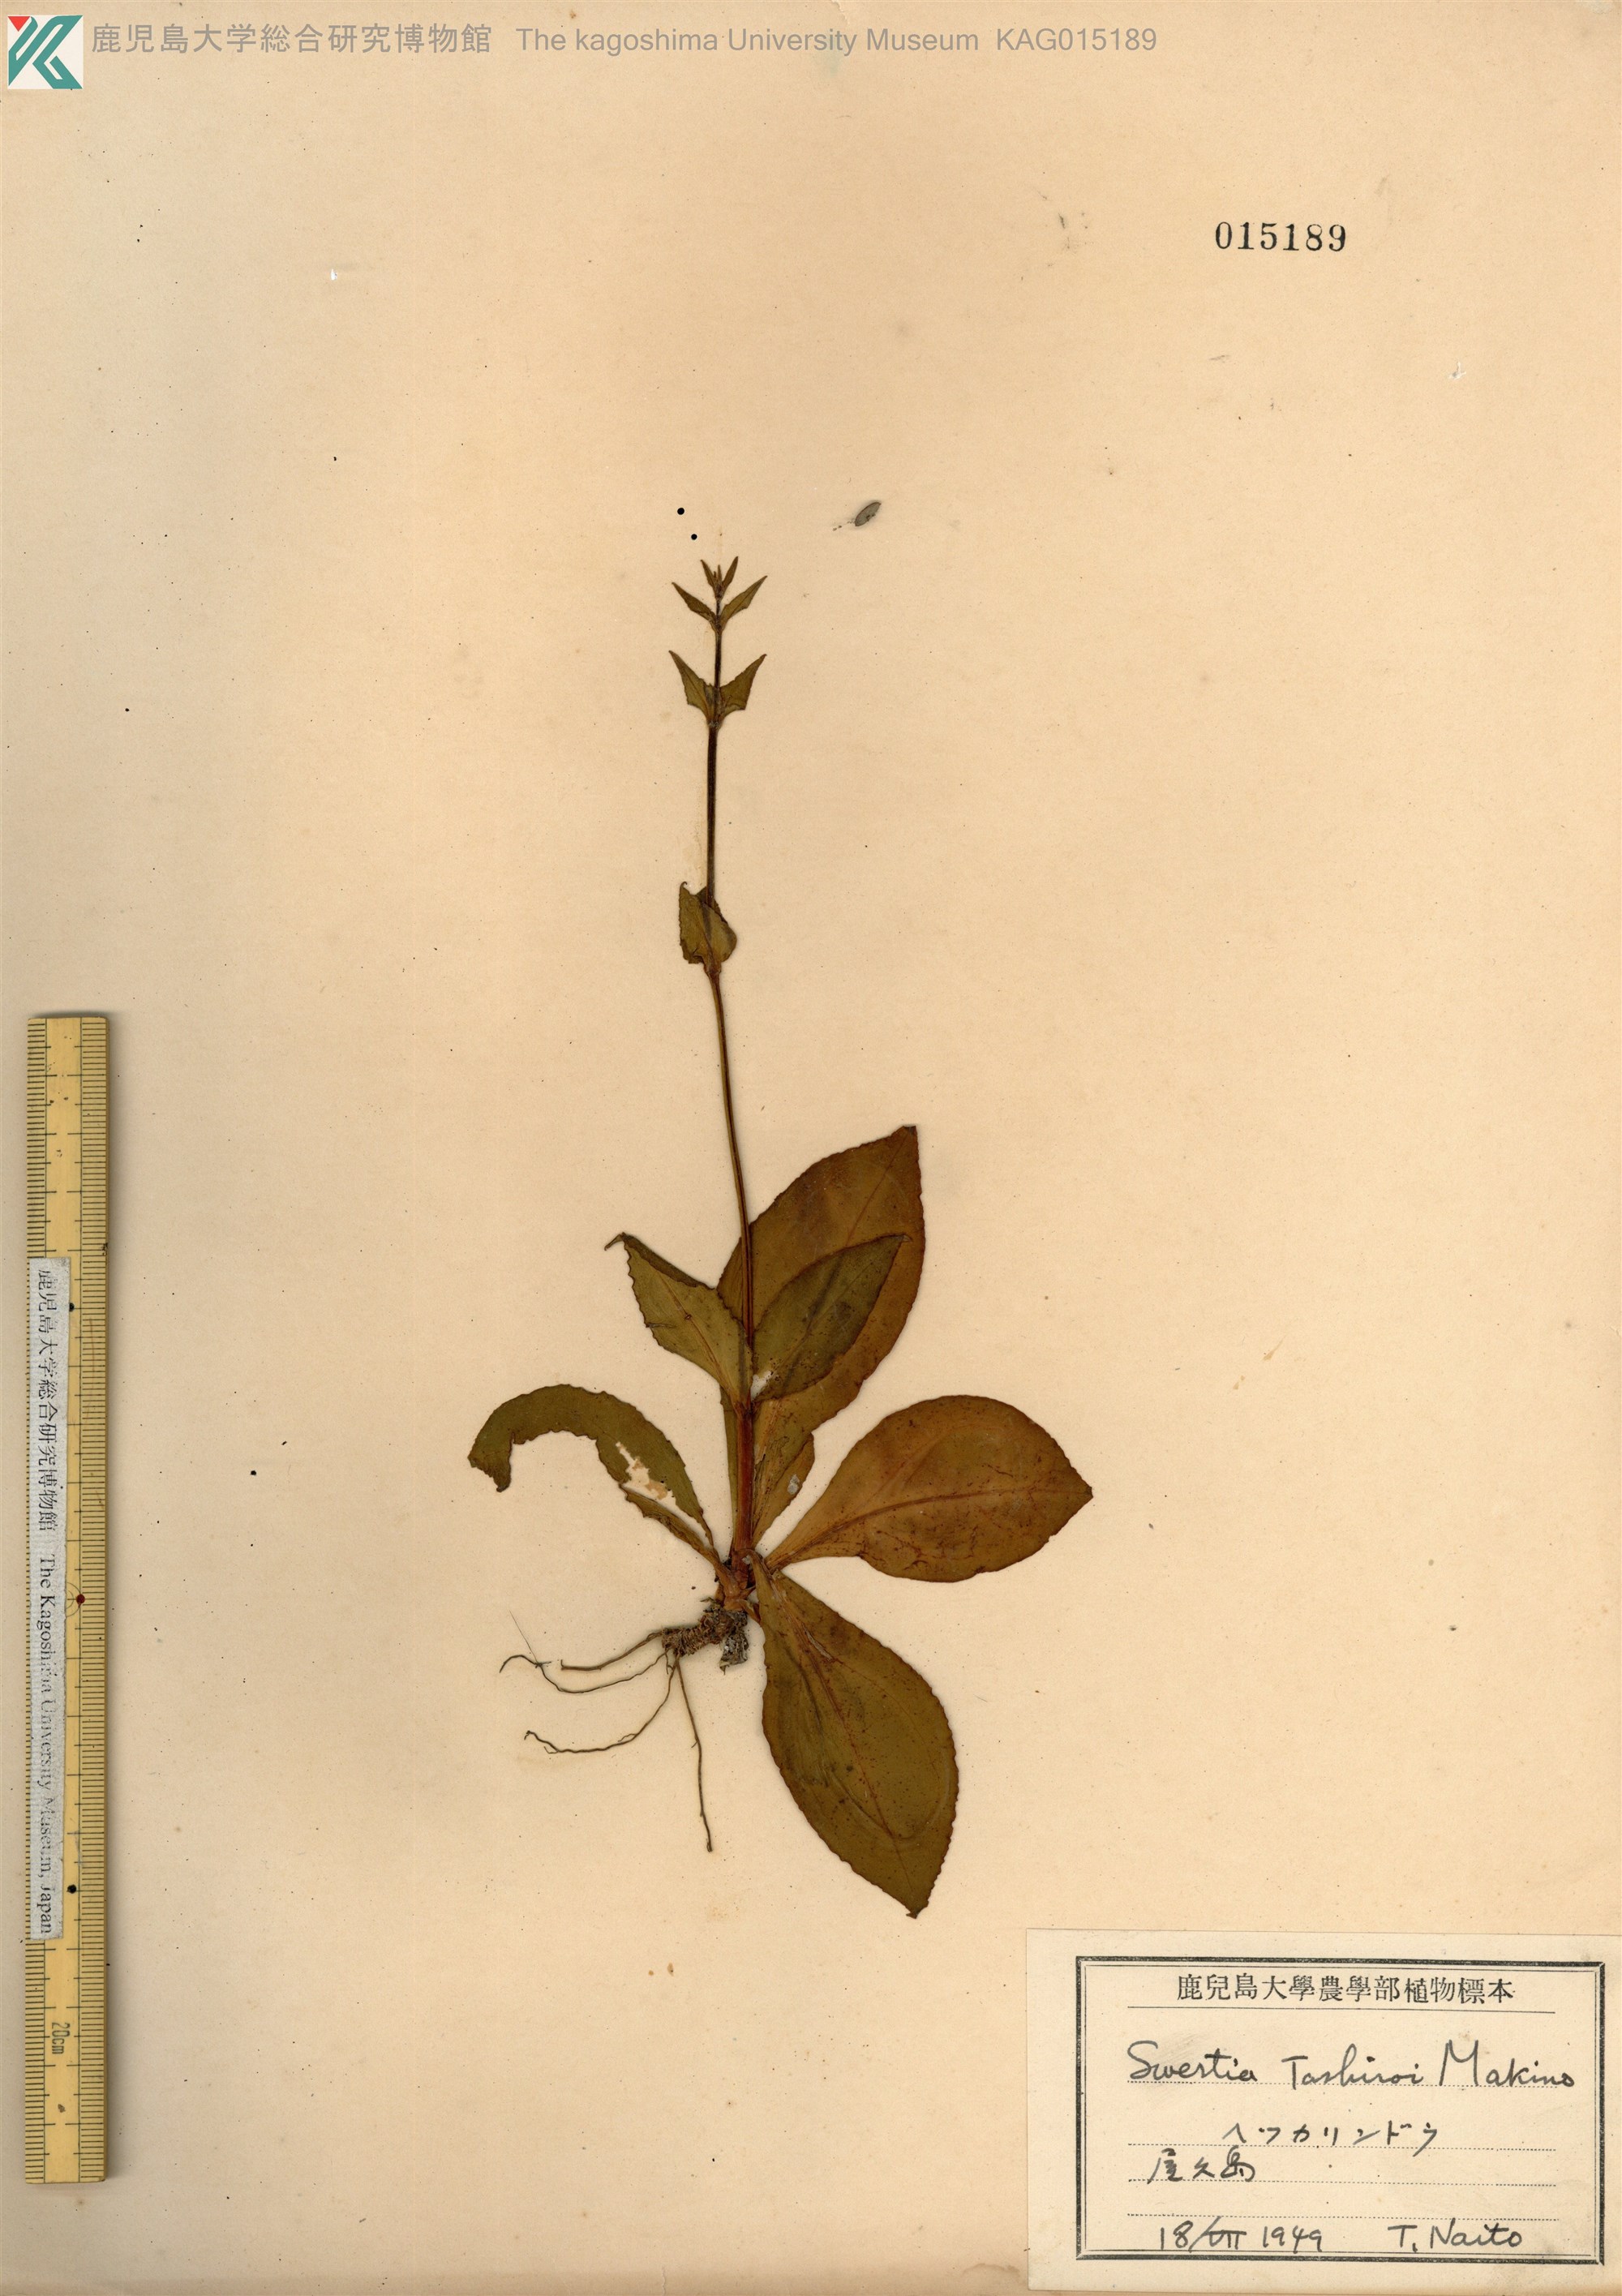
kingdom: Plantae
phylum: Tracheophyta
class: Magnoliopsida
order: Gentianales
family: Gentianaceae
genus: Swertia
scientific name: Swertia tashiroi
